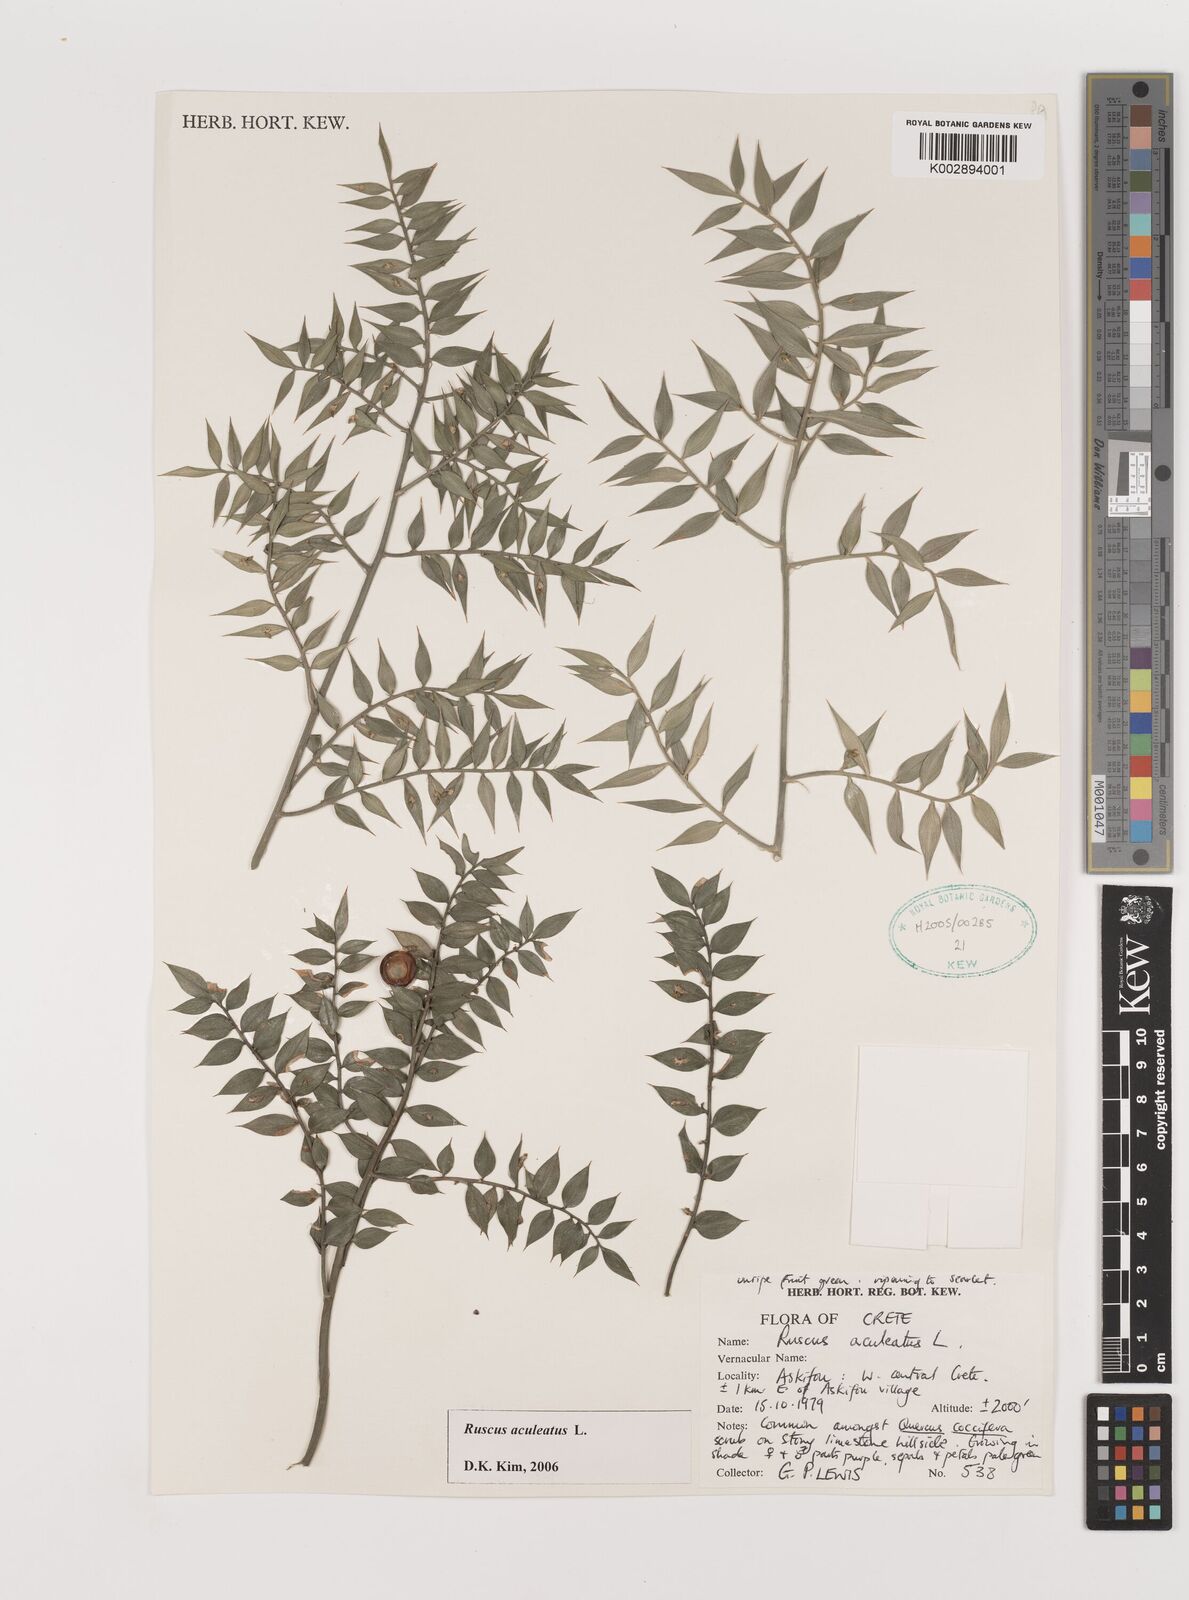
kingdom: Plantae
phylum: Tracheophyta
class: Liliopsida
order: Asparagales
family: Asparagaceae
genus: Ruscus
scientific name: Ruscus aculeatus
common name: Butcher's-broom
